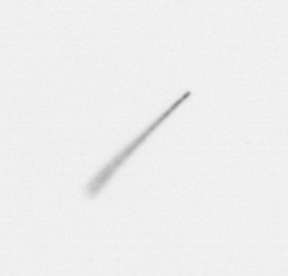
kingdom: Chromista
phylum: Ochrophyta
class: Bacillariophyceae
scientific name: Bacillariophyceae
